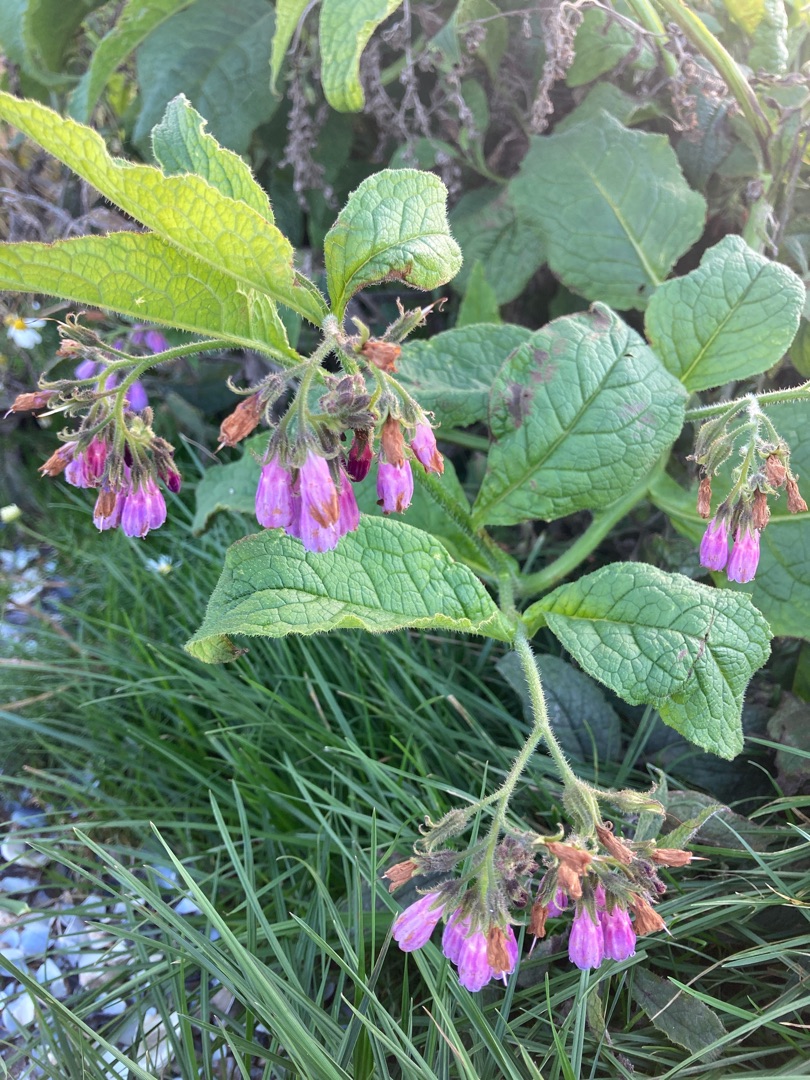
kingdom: Plantae
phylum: Tracheophyta
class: Magnoliopsida
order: Boraginales
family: Boraginaceae
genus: Symphytum
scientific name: Symphytum uplandicum
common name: Foder-kulsukker
